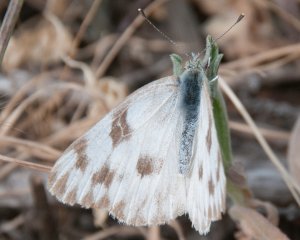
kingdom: Animalia
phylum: Arthropoda
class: Insecta
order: Lepidoptera
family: Pieridae
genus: Pontia
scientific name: Pontia protodice
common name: Checkered White
